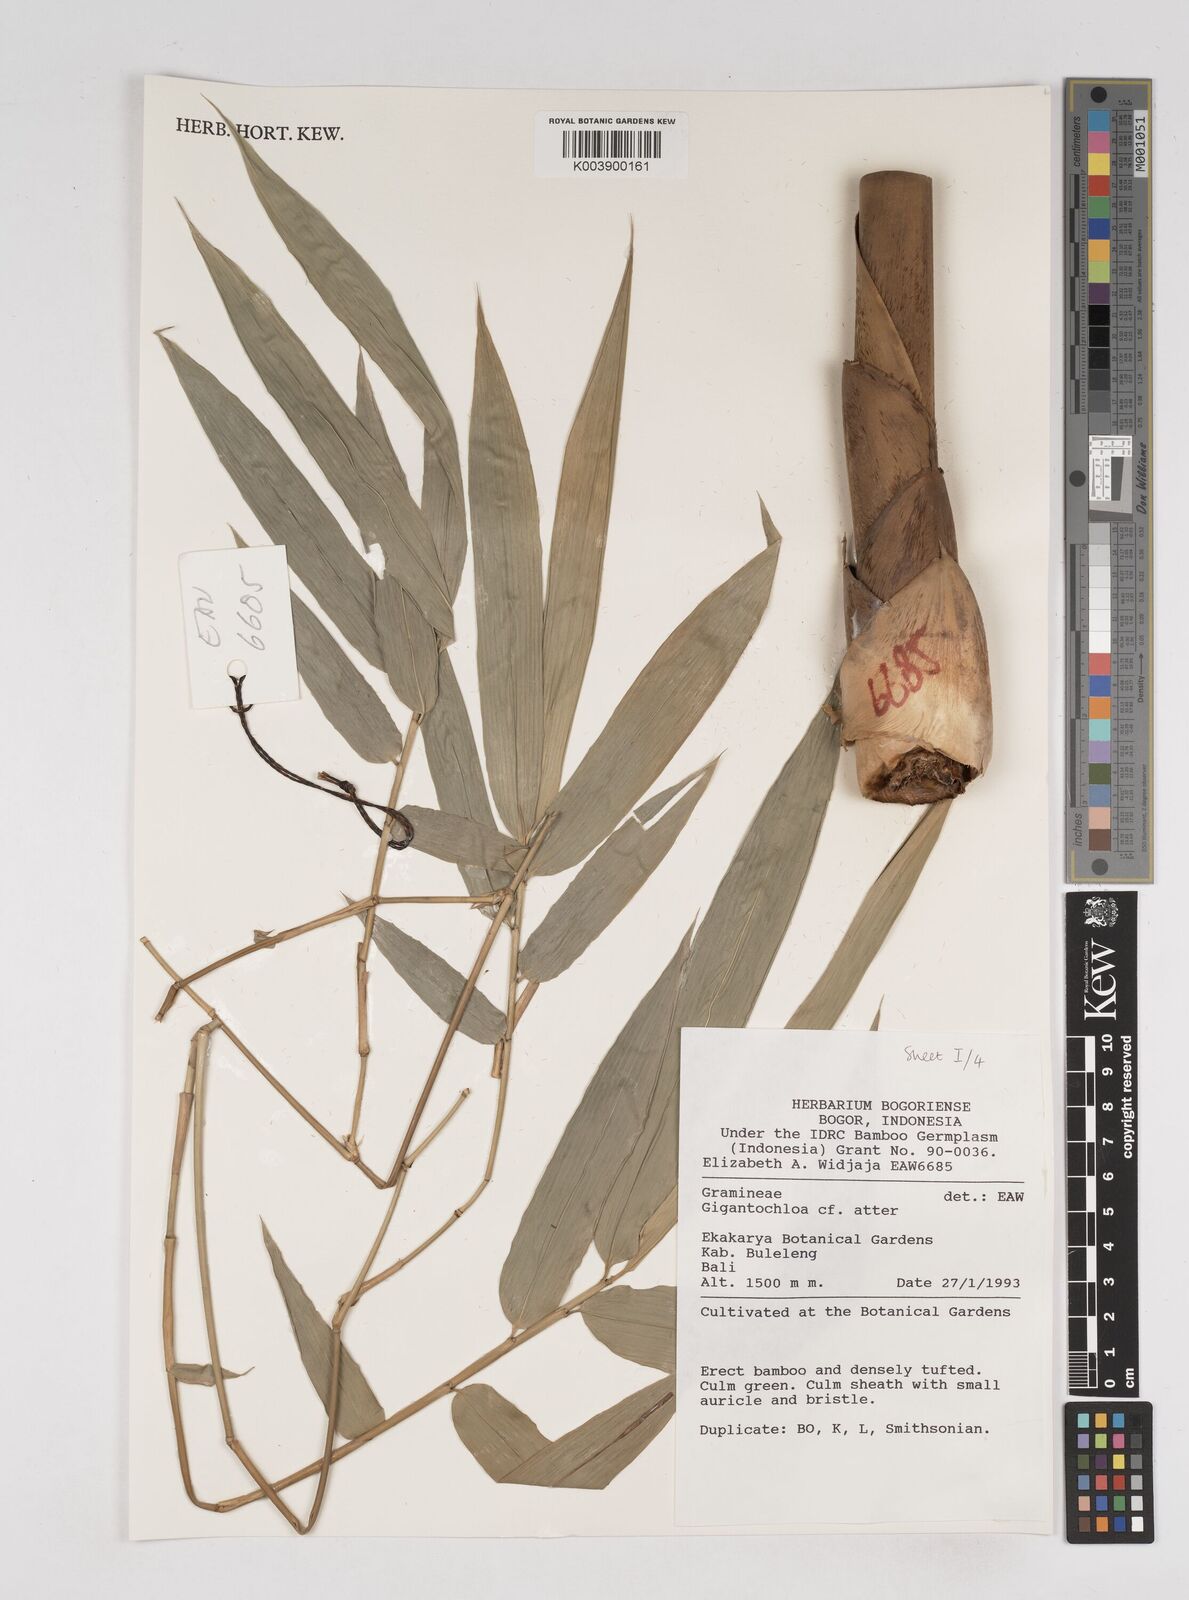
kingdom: Plantae
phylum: Tracheophyta
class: Liliopsida
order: Poales
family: Poaceae
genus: Gigantochloa
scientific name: Gigantochloa
